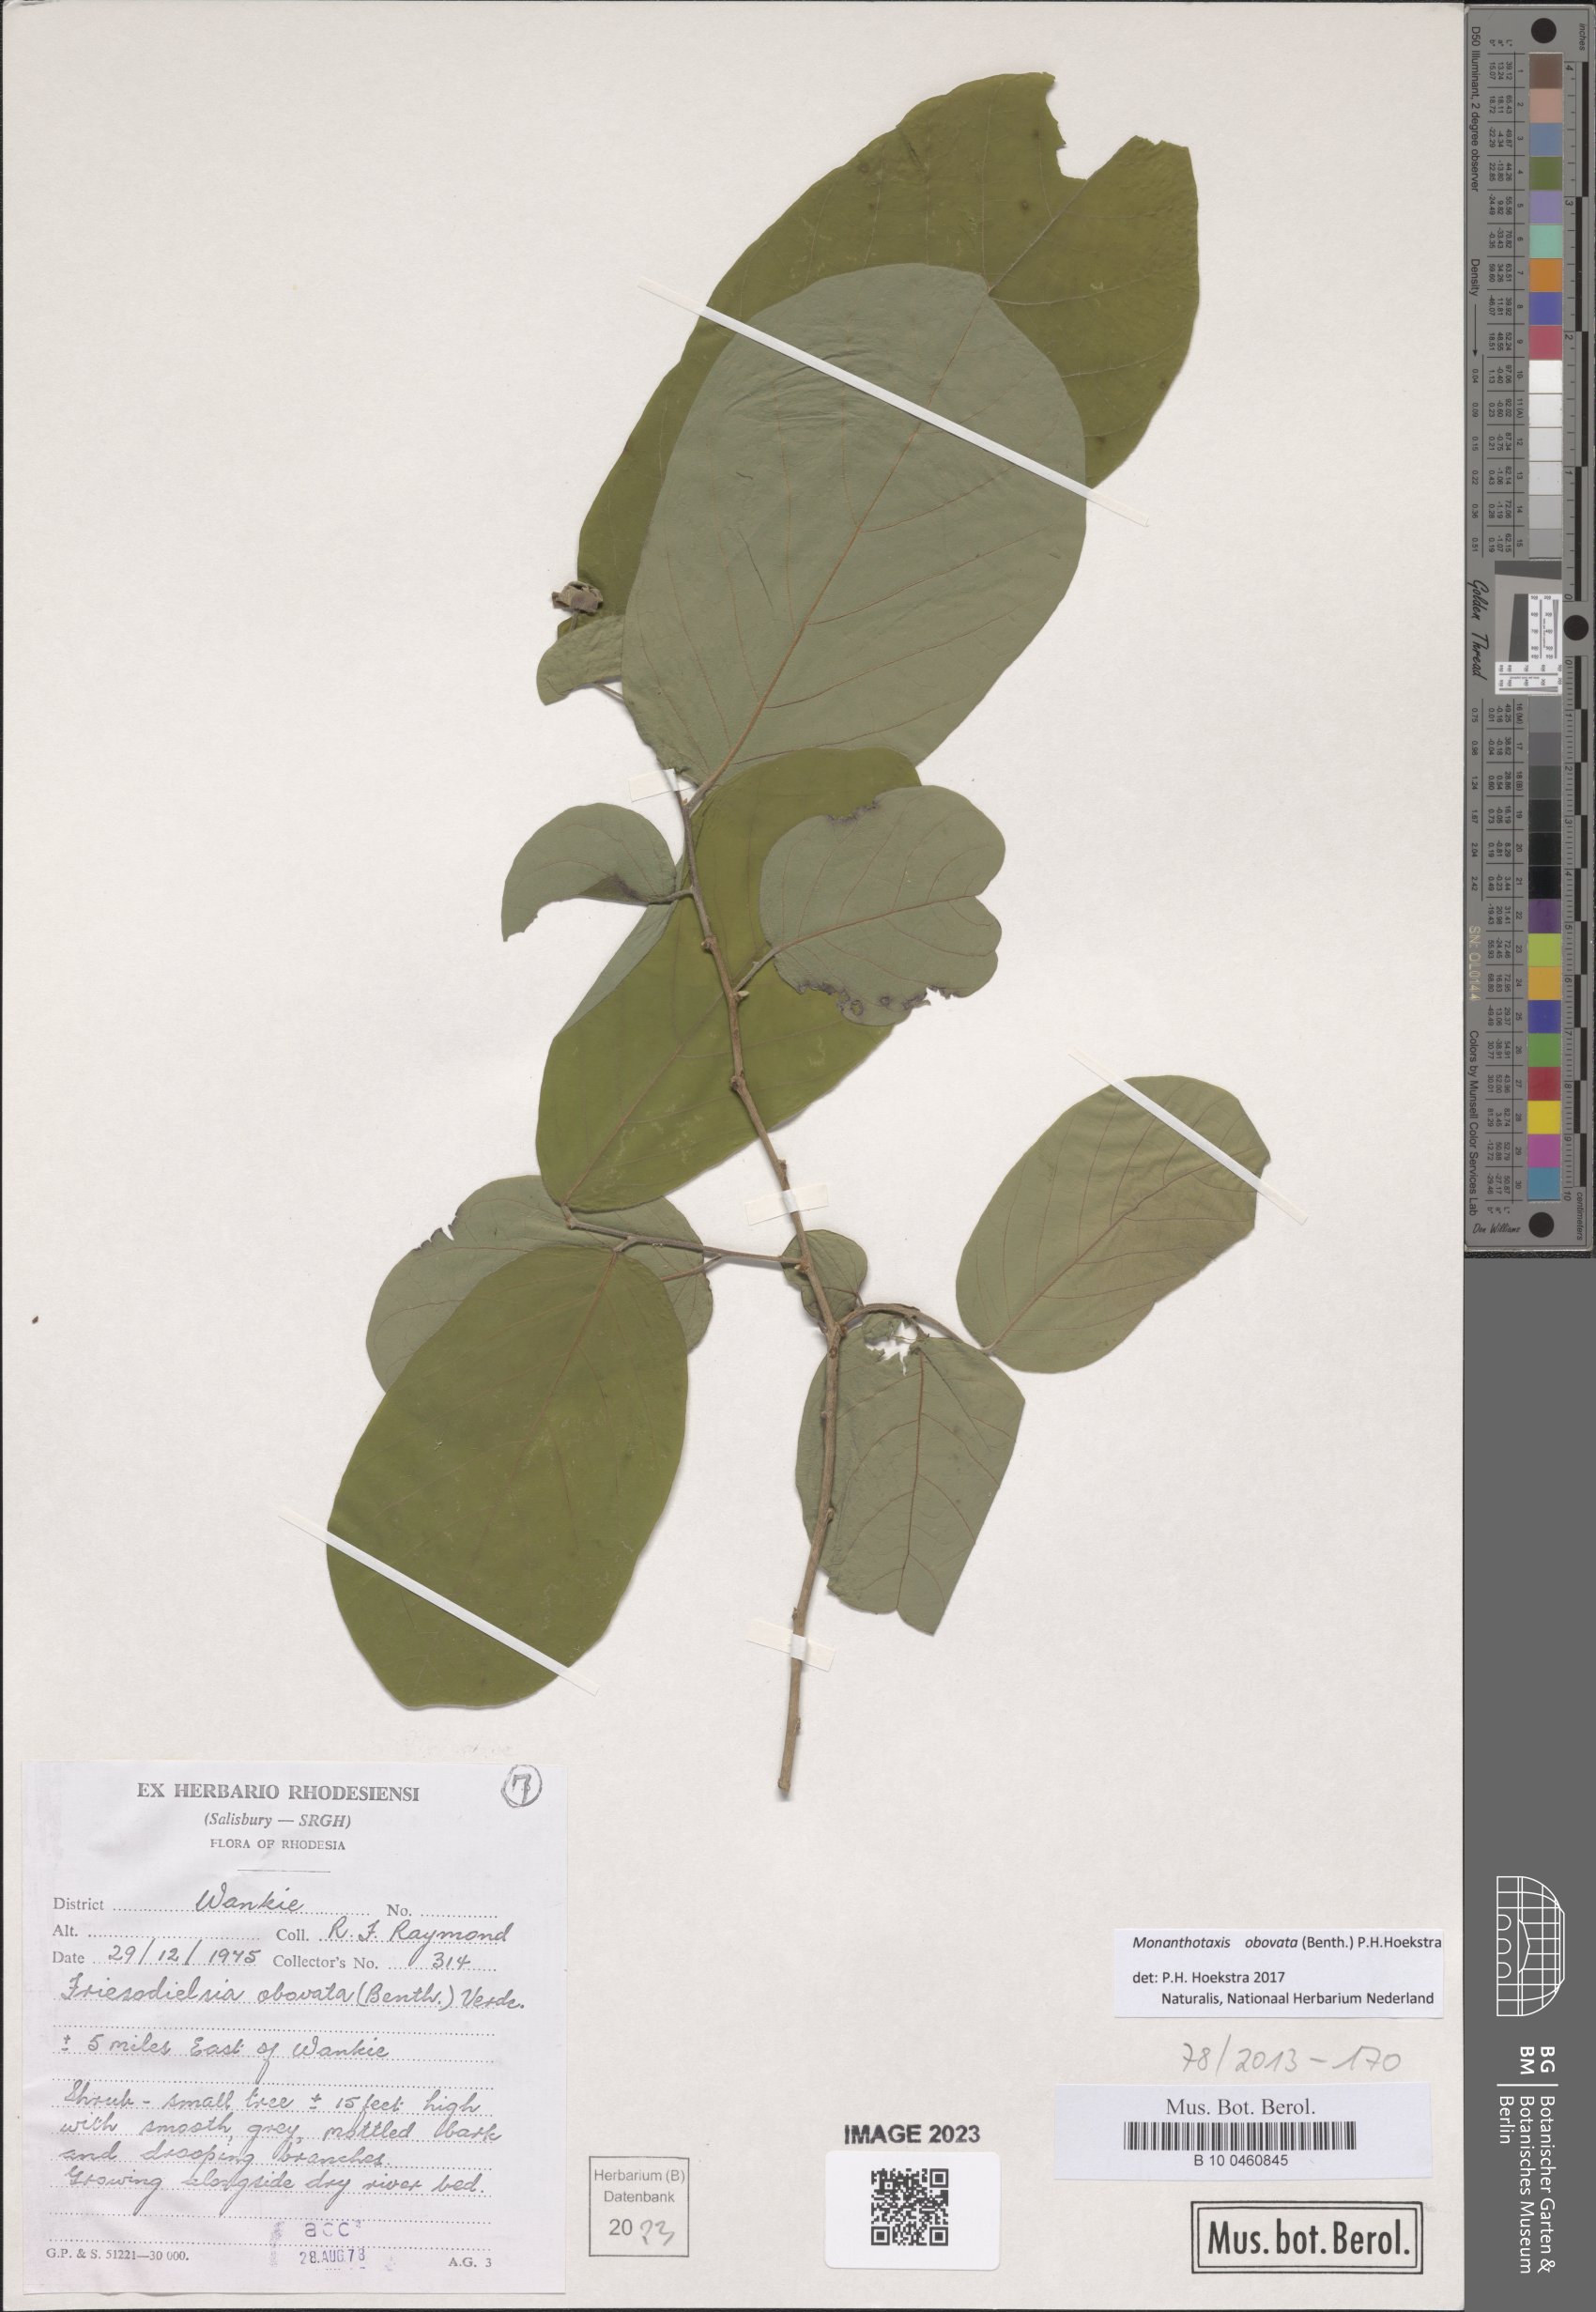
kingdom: Plantae
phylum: Tracheophyta
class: Magnoliopsida
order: Magnoliales
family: Annonaceae
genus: Friesodielsia
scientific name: Friesodielsia obovata
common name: Monkey fingers
